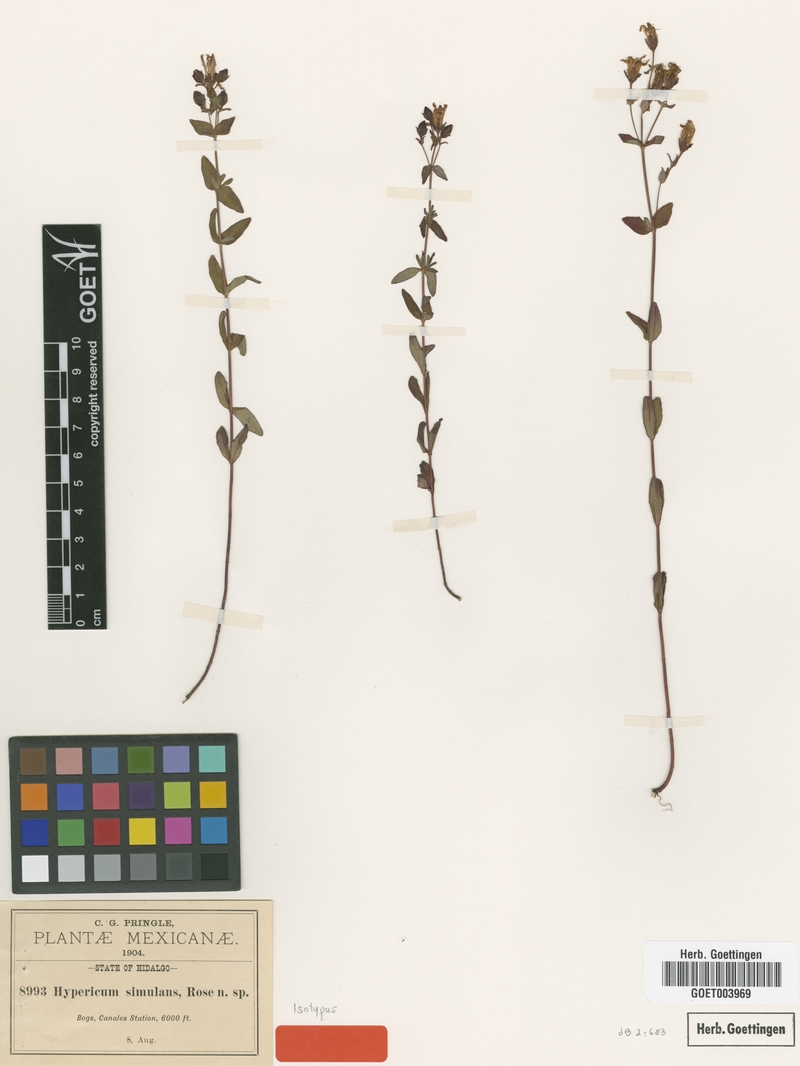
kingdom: Plantae
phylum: Tracheophyta
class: Magnoliopsida
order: Malpighiales
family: Hypericaceae
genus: Hypericum
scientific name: Hypericum formosum
